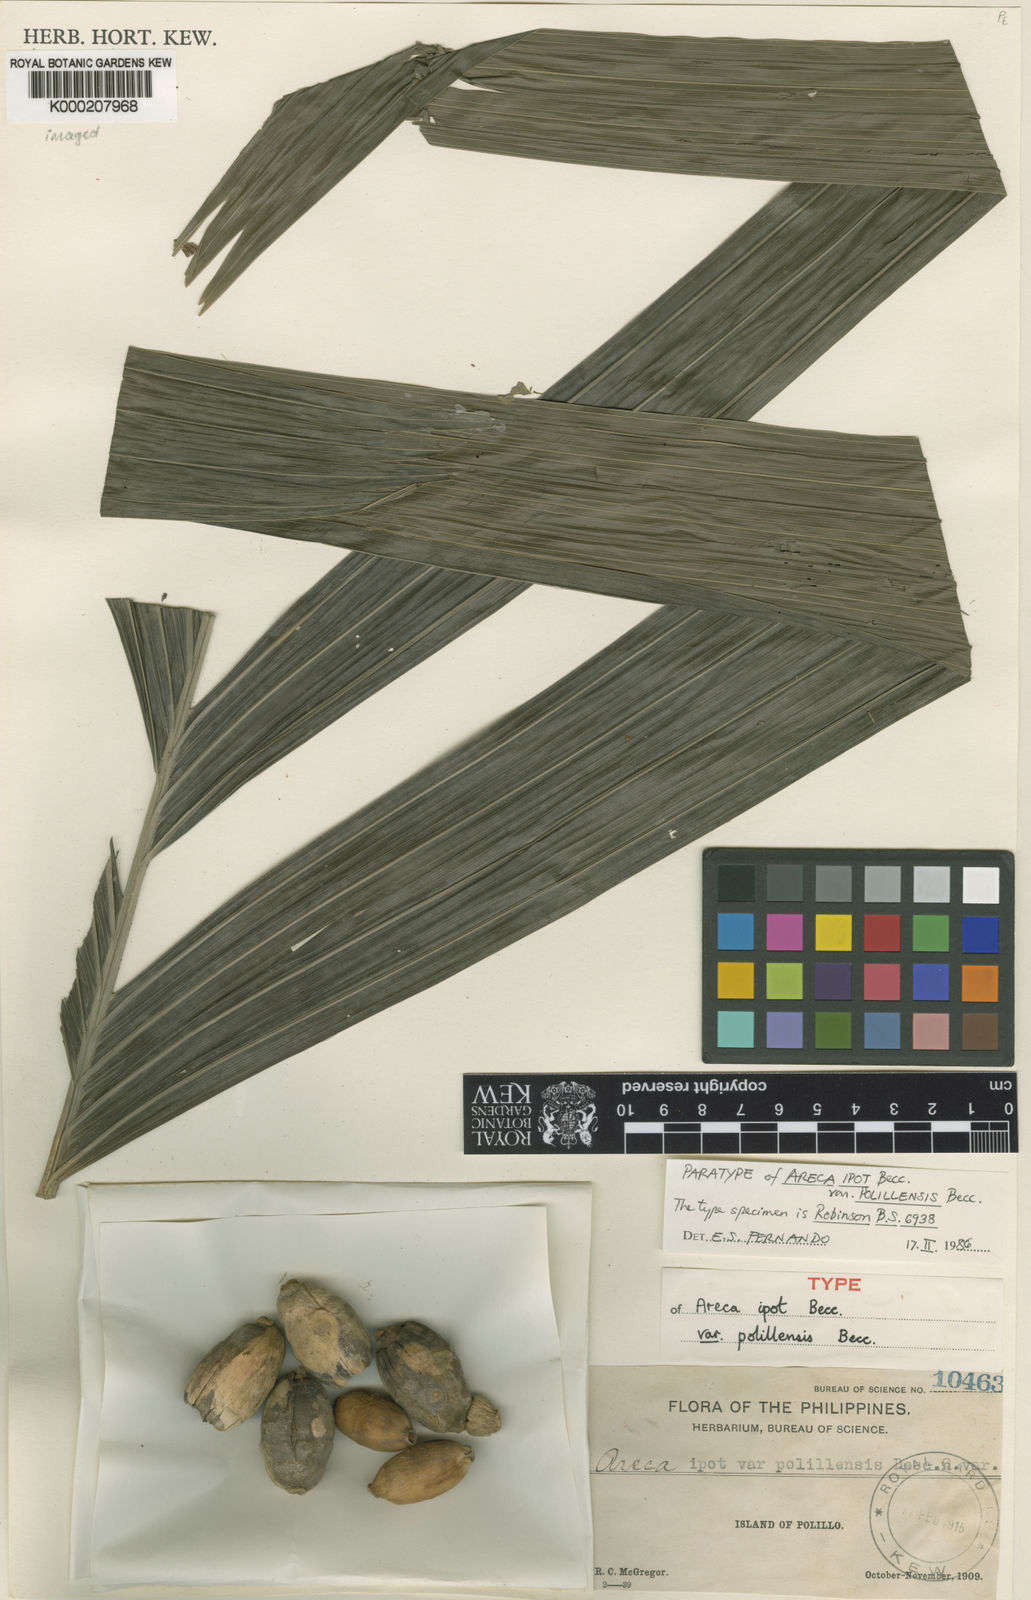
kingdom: Plantae
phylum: Tracheophyta
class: Liliopsida
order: Arecales
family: Arecaceae
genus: Areca
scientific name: Areca ipot
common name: Ipot palm
